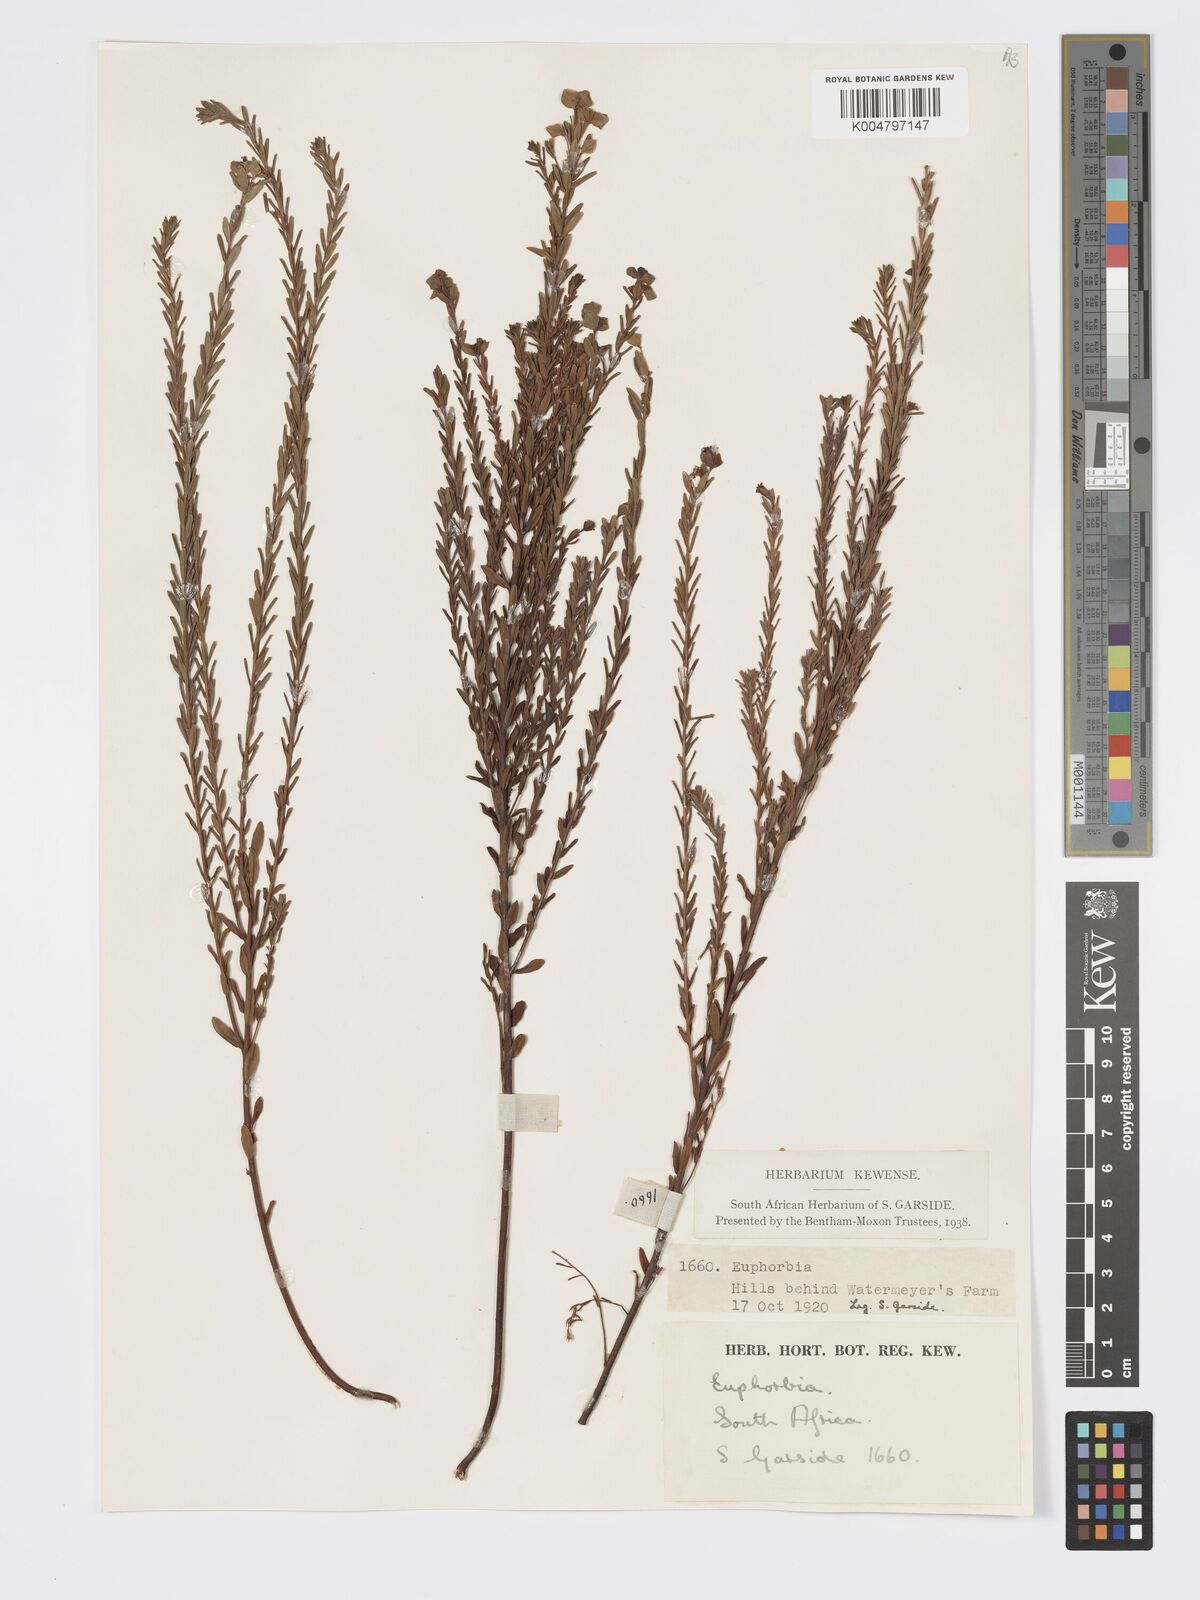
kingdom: Plantae
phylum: Tracheophyta
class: Magnoliopsida
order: Malpighiales
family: Euphorbiaceae
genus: Euphorbia
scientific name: Euphorbia
